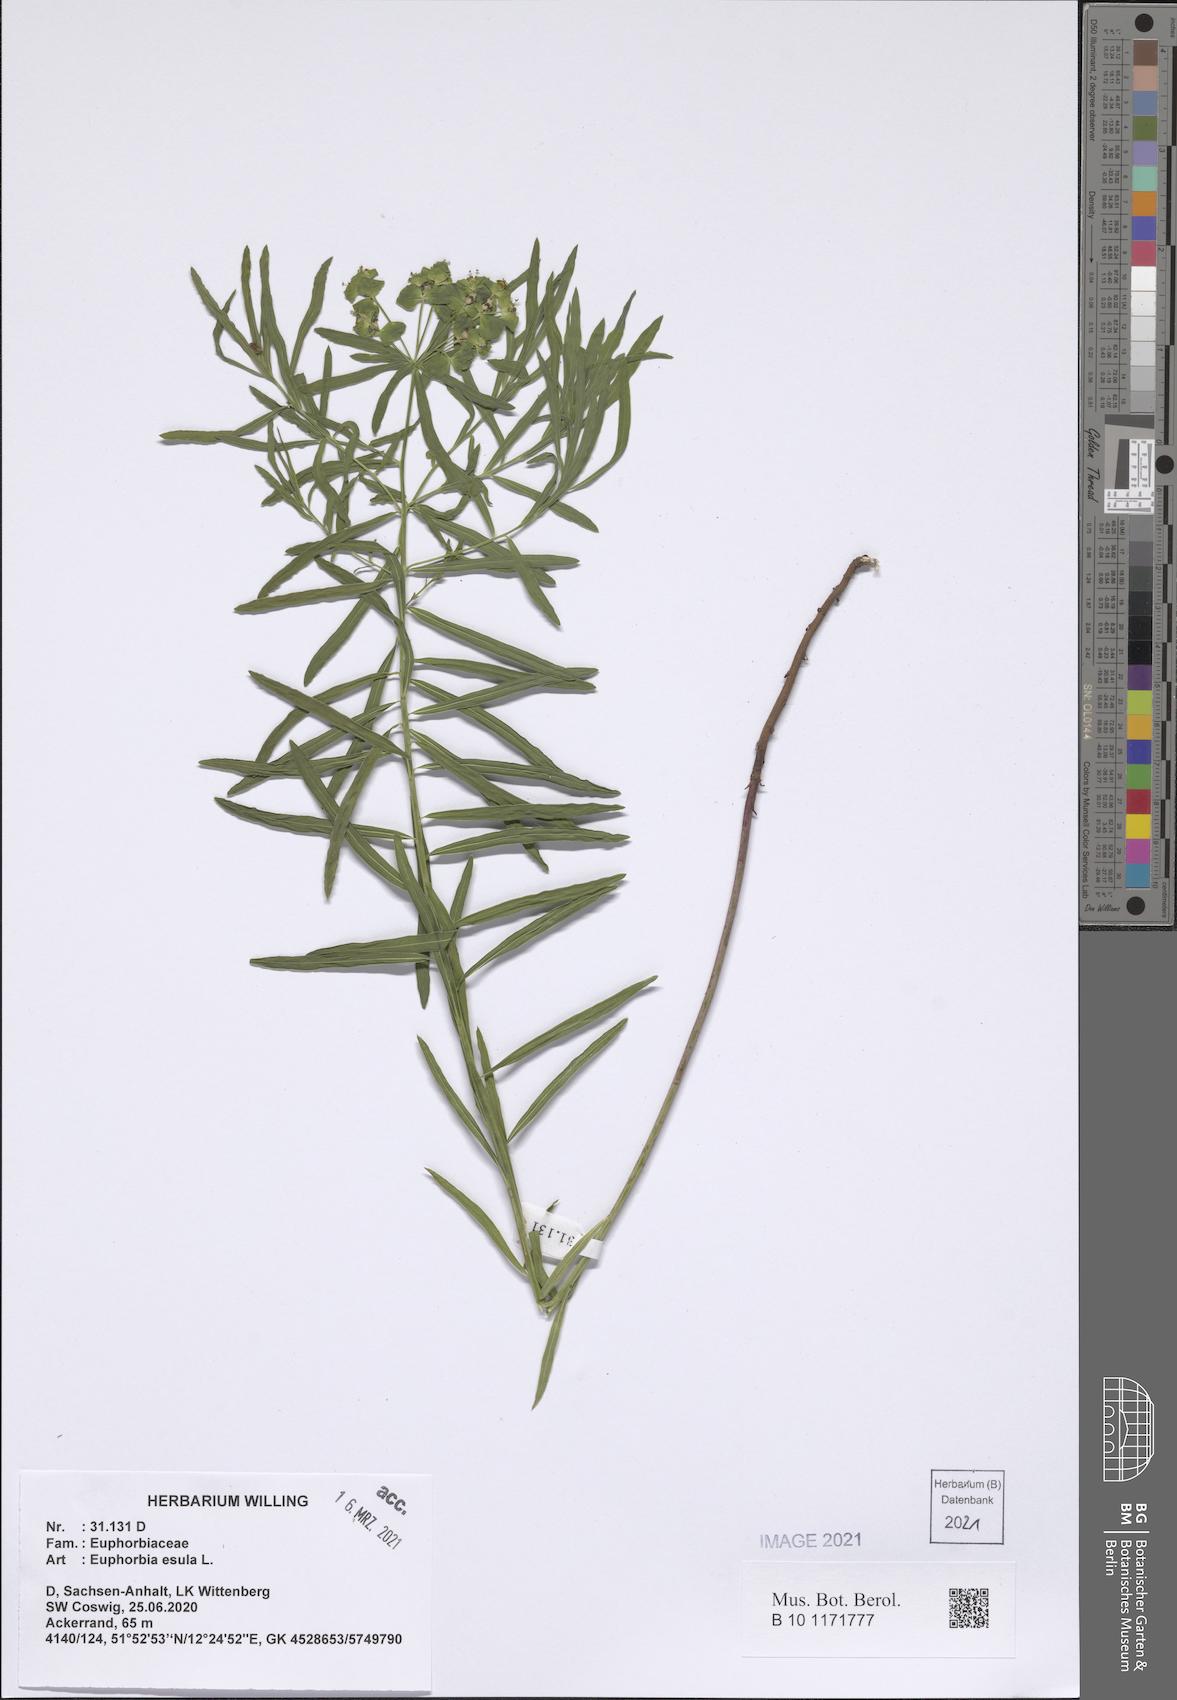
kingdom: Plantae
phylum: Tracheophyta
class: Magnoliopsida
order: Malpighiales
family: Euphorbiaceae
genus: Euphorbia
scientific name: Euphorbia esula
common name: Leafy spurge
